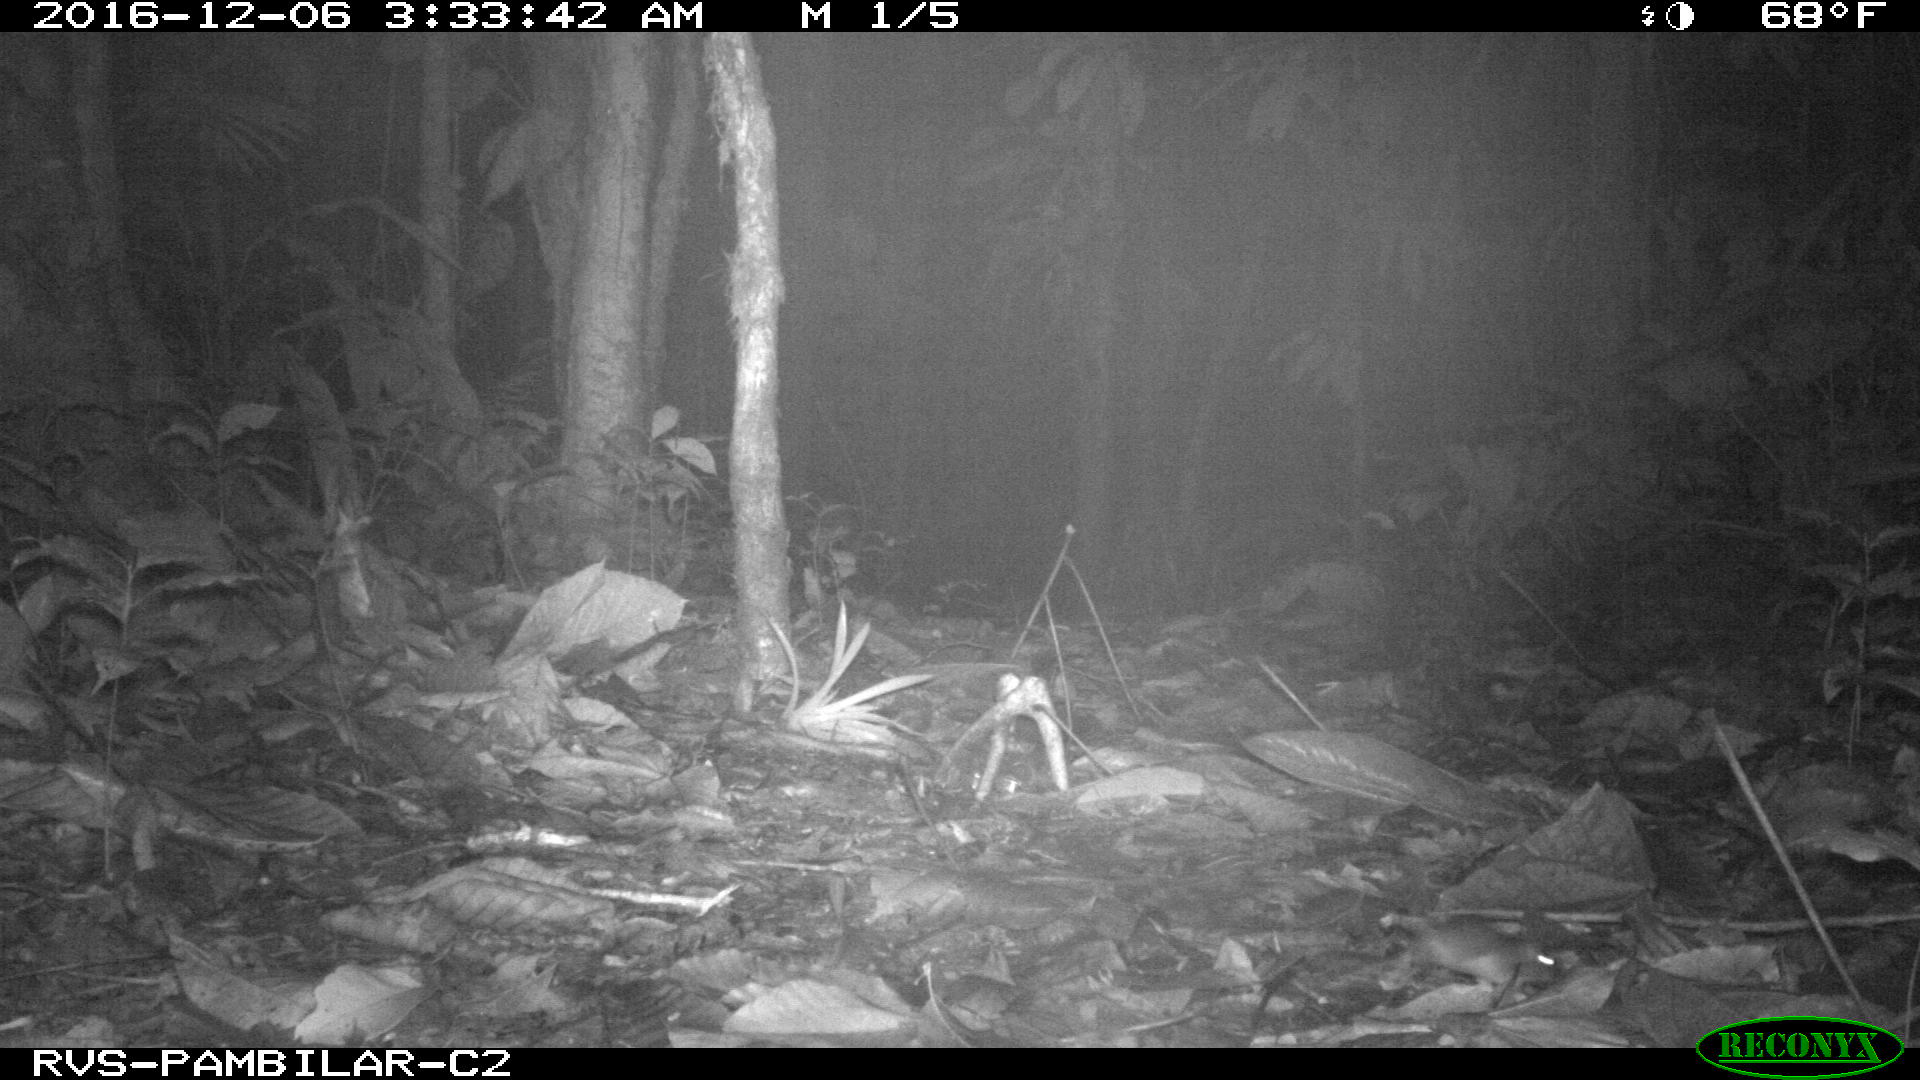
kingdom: Animalia
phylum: Chordata
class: Mammalia
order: Rodentia
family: Echimyidae
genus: Proechimys
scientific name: Proechimys
